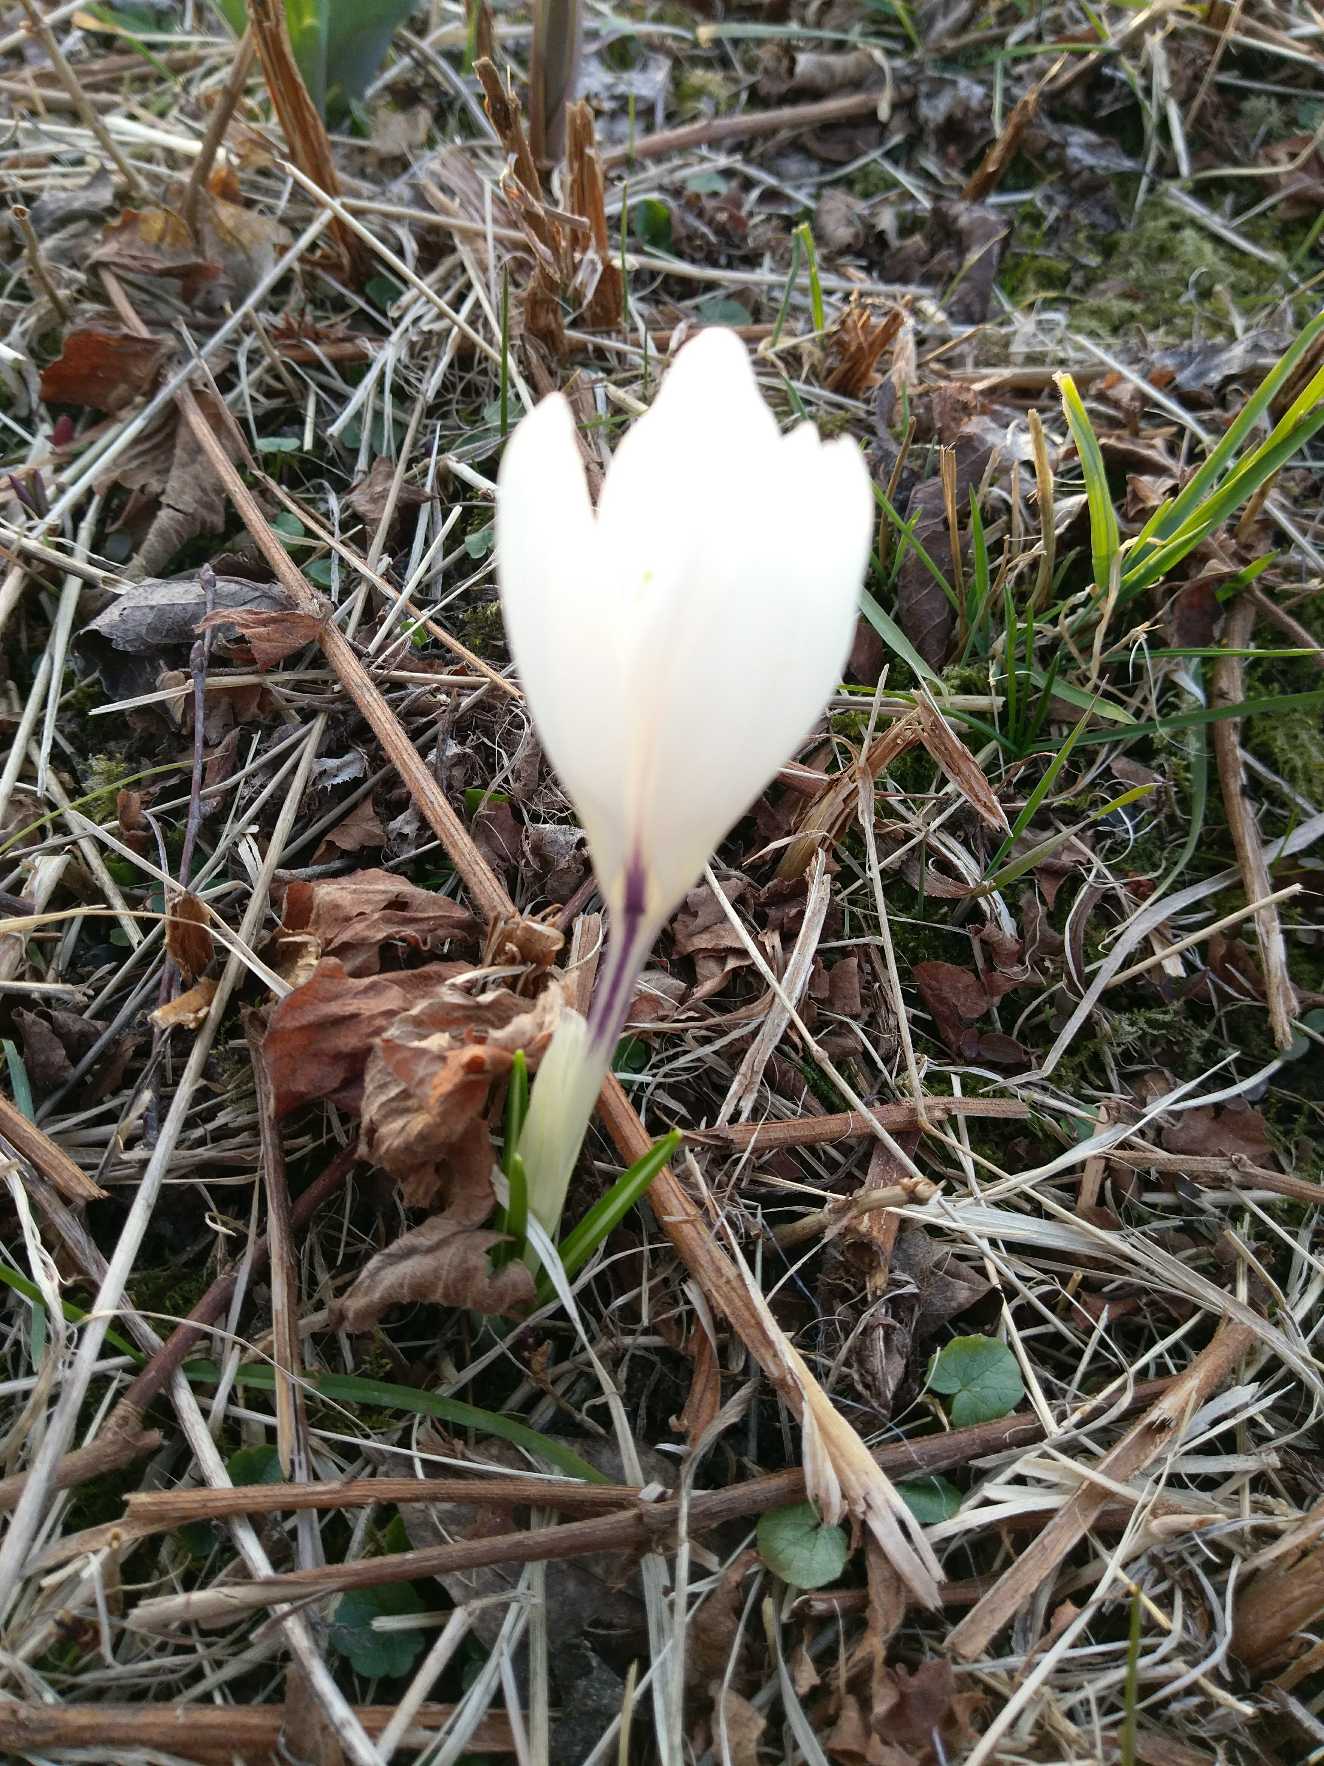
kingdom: Plantae
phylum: Tracheophyta
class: Liliopsida
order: Asparagales
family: Iridaceae
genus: Crocus
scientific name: Crocus vernus
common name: Vår-krokus
